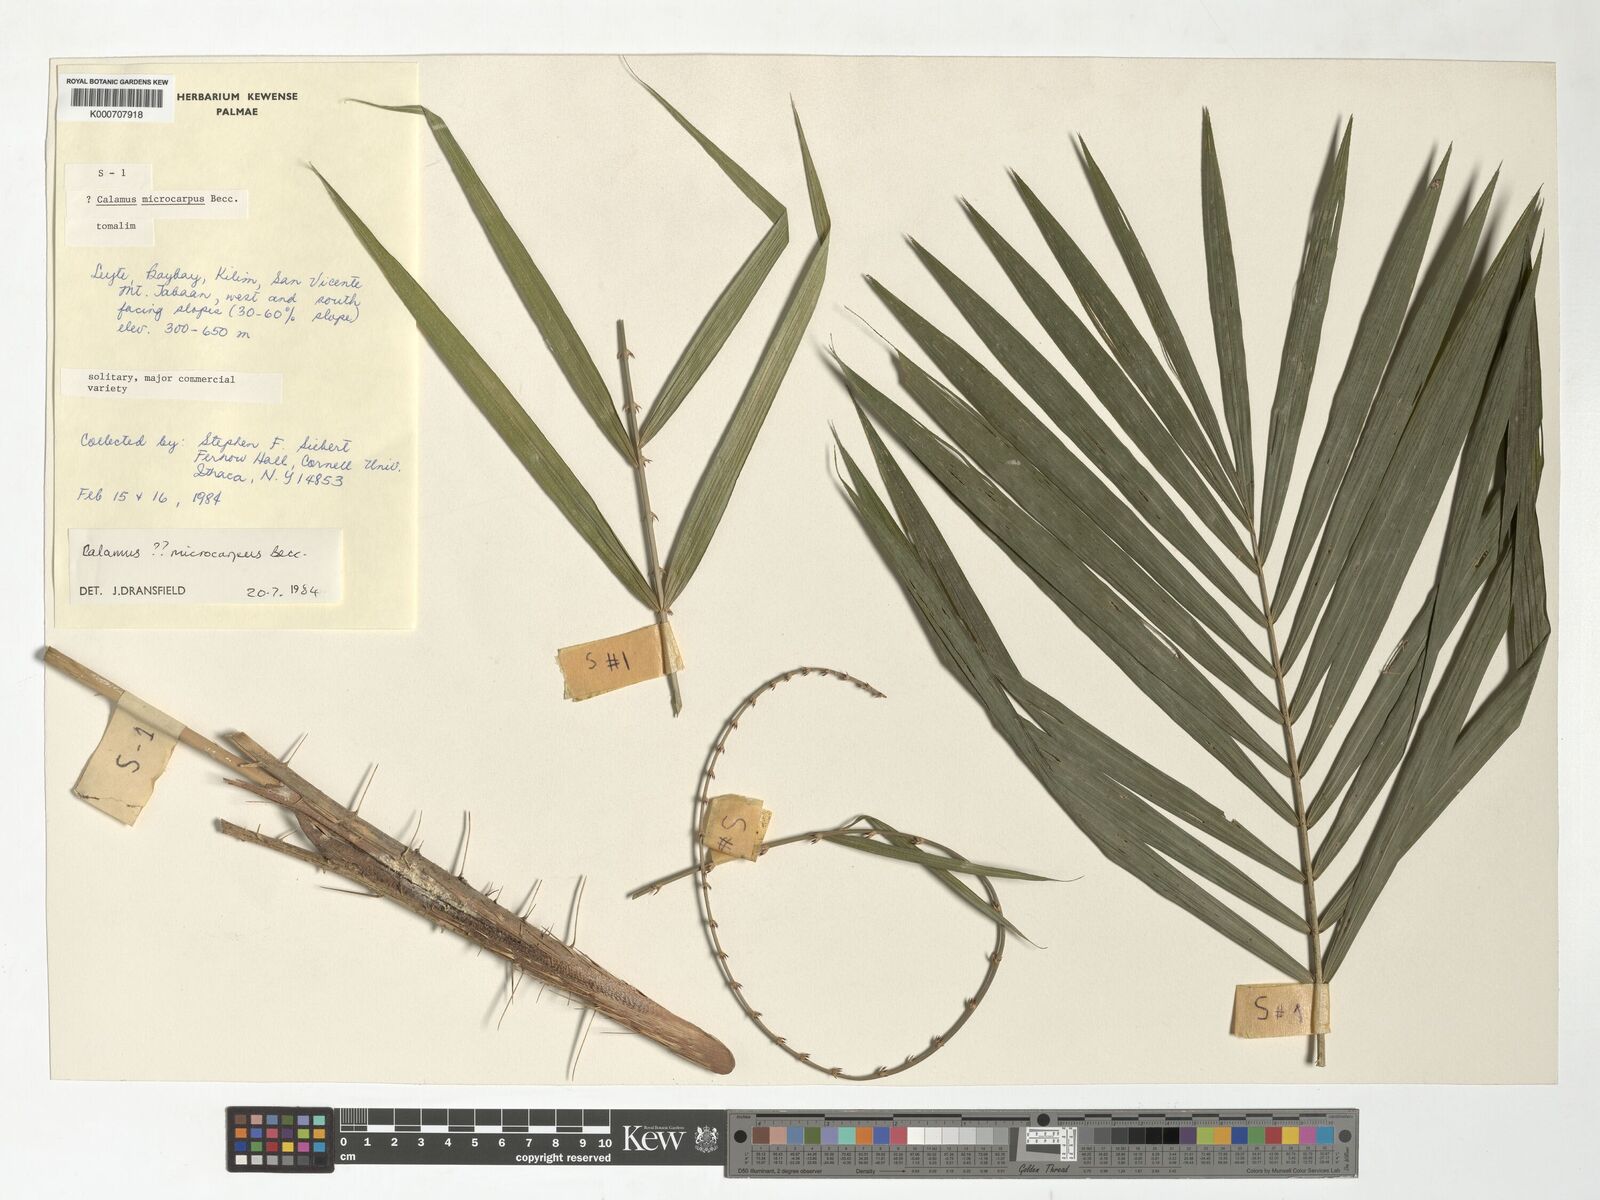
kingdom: Plantae
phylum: Tracheophyta
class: Liliopsida
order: Arecales
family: Arecaceae
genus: Calamus
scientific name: Calamus siphonospathus
